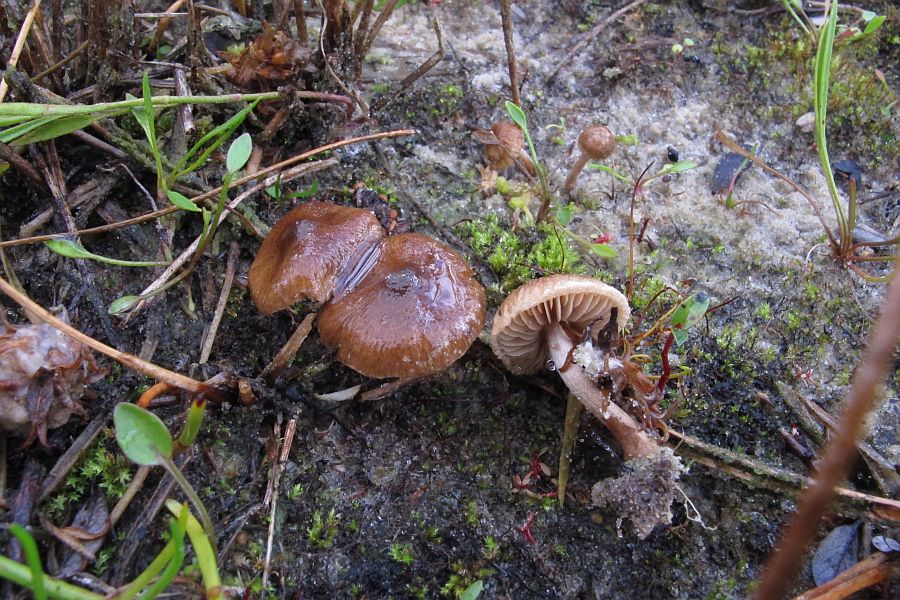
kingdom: Fungi
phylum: Basidiomycota
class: Agaricomycetes
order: Agaricales
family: Inocybaceae
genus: Inocybe
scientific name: Inocybe lacera
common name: laset trævlhat
